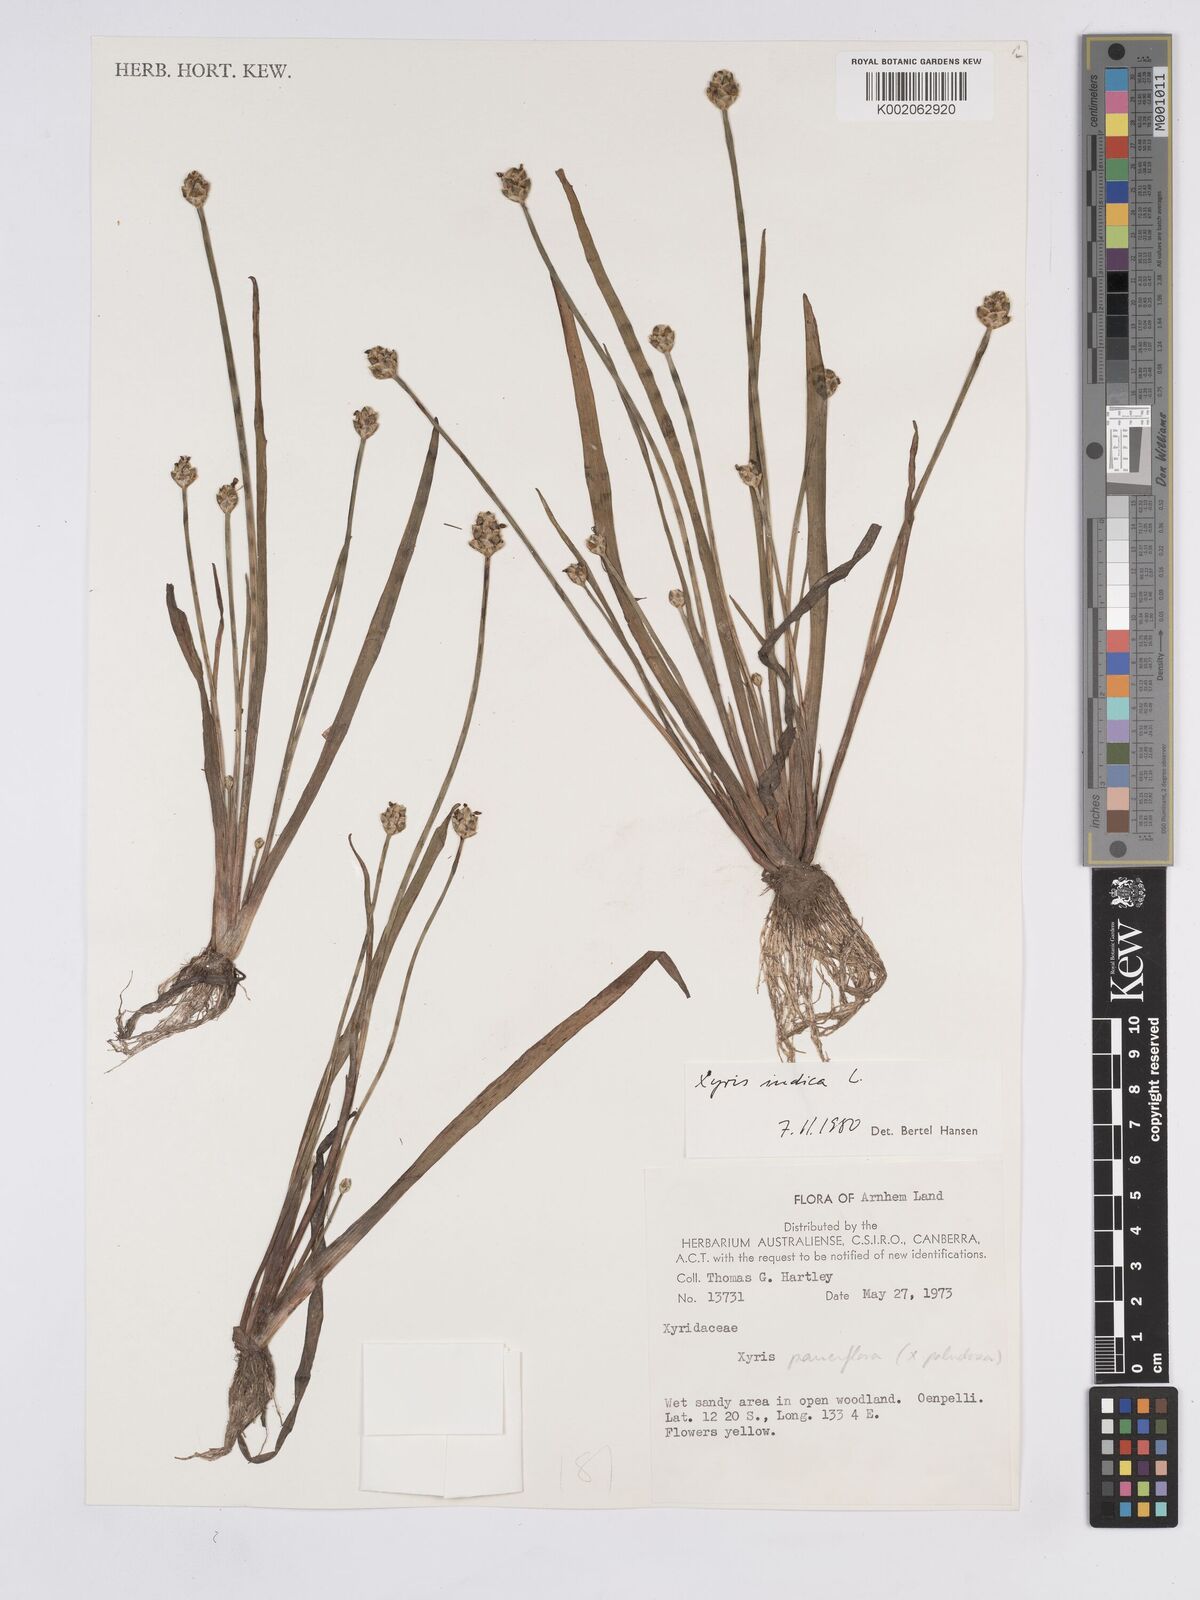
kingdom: Plantae
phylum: Tracheophyta
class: Liliopsida
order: Poales
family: Xyridaceae
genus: Xyris
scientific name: Xyris indica
